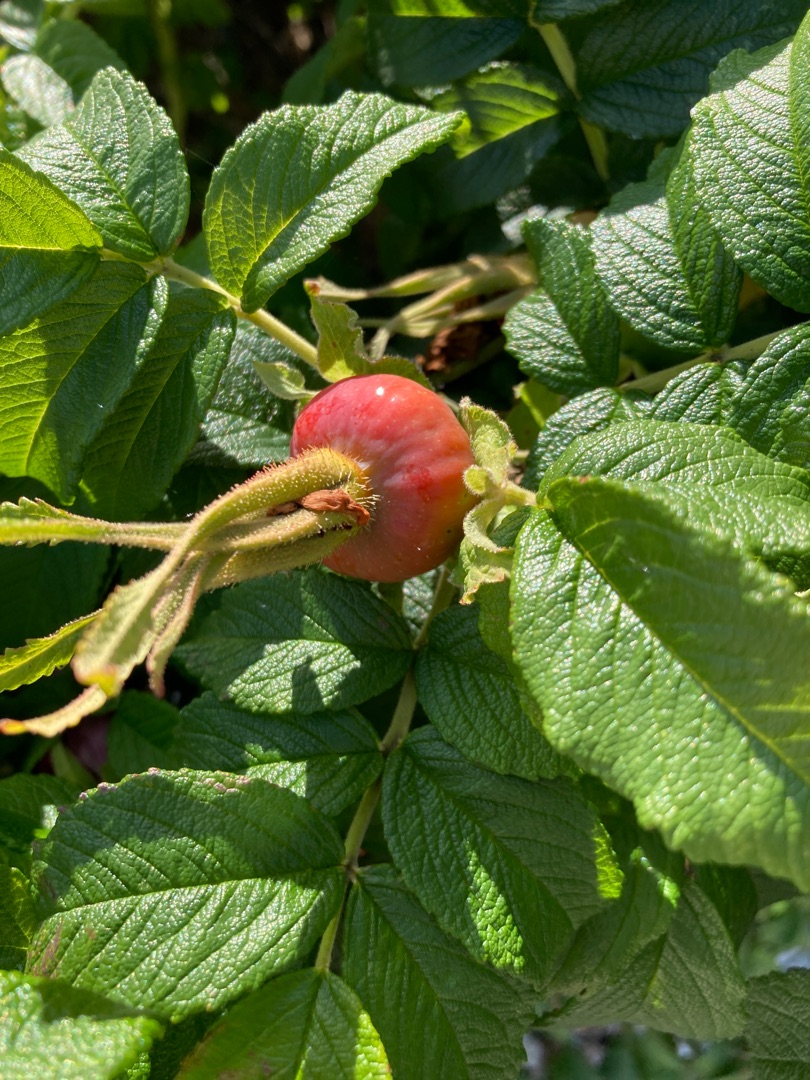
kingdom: Plantae
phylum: Tracheophyta
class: Magnoliopsida
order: Rosales
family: Rosaceae
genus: Rosa
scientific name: Rosa rugosa
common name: Rynket rose
